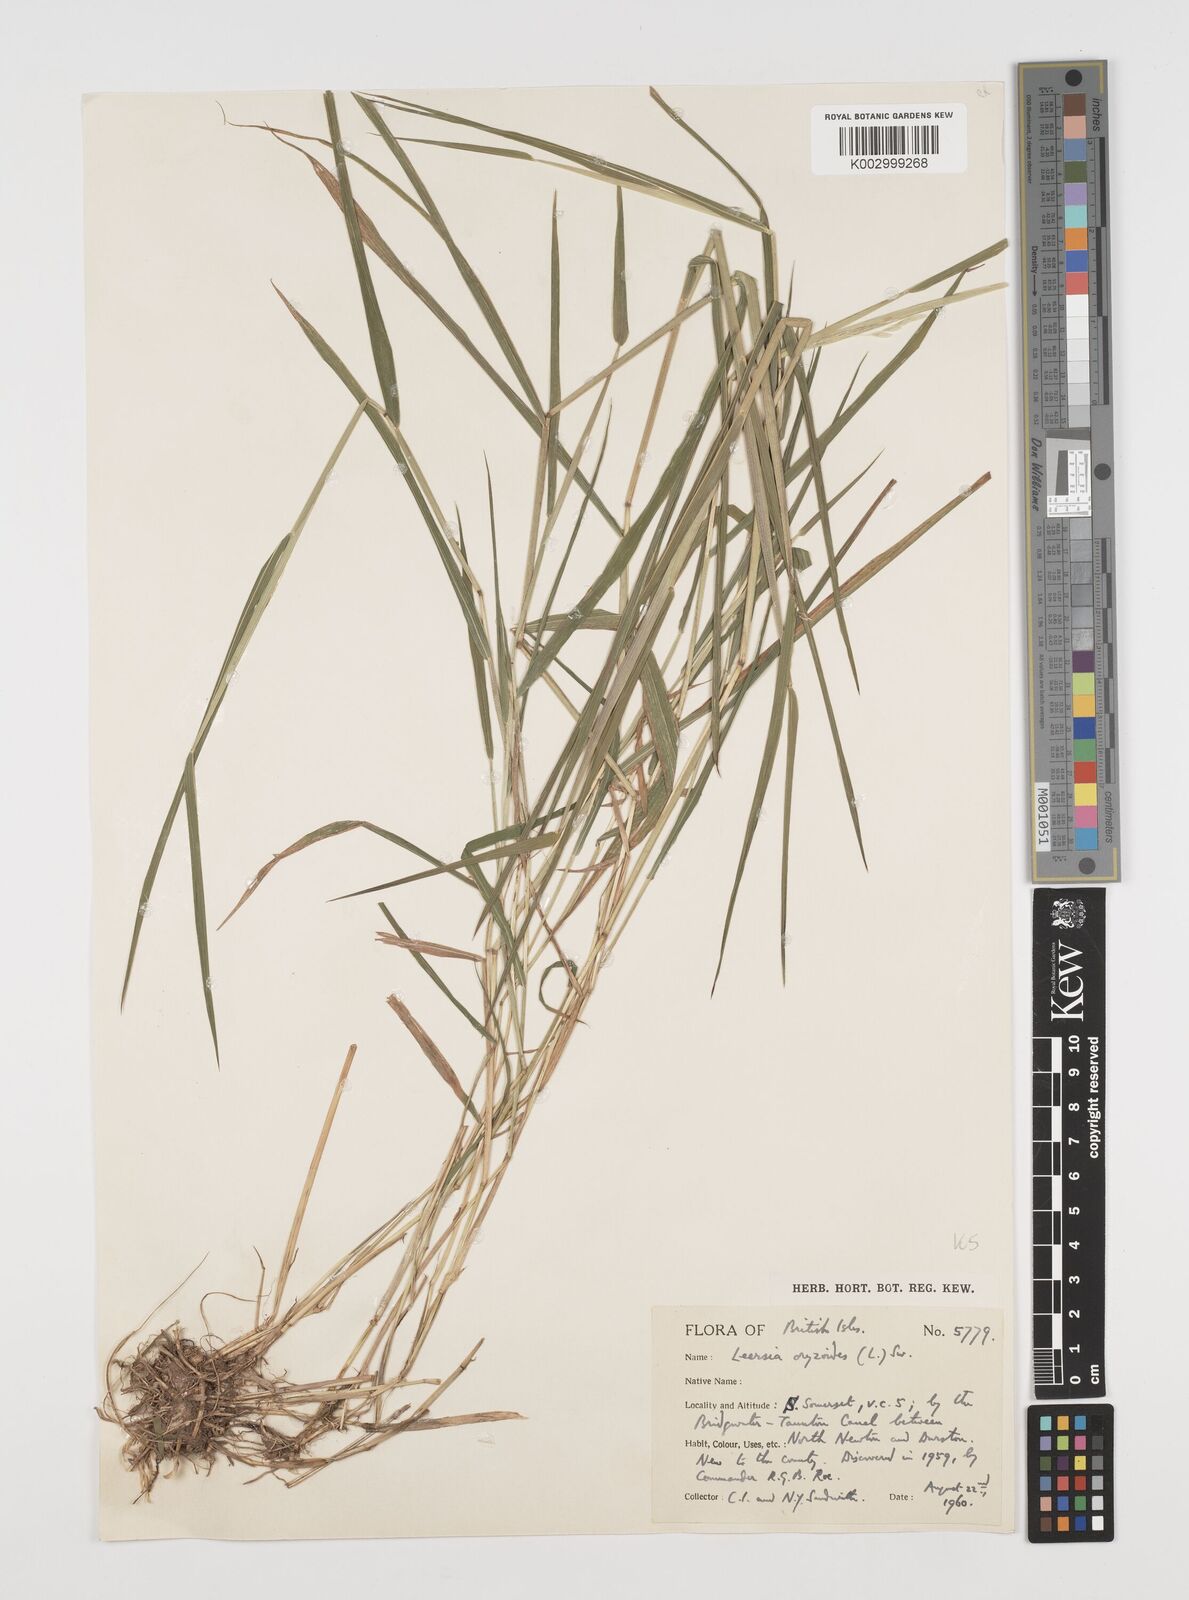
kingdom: Plantae
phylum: Tracheophyta
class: Liliopsida
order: Poales
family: Poaceae
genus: Leersia
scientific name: Leersia oryzoides
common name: Cut-grass
